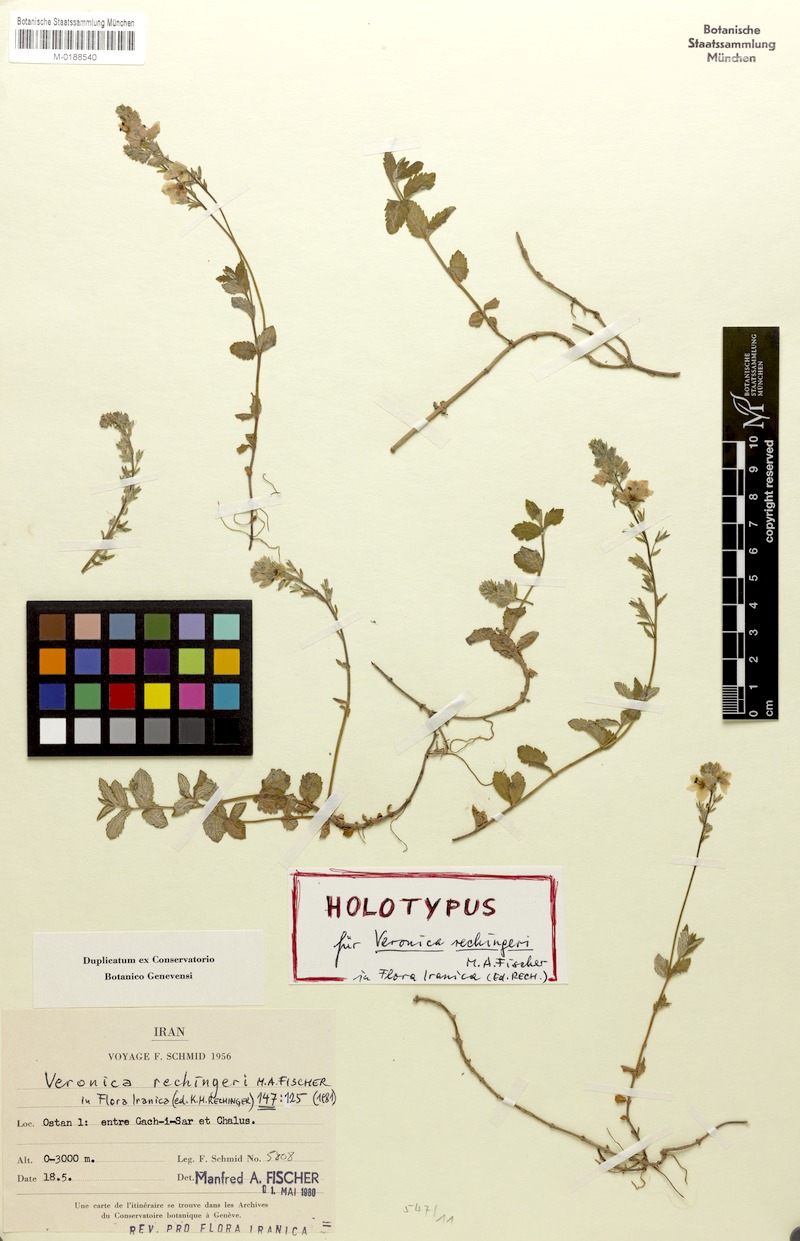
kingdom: Plantae
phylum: Tracheophyta
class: Magnoliopsida
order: Lamiales
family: Plantaginaceae
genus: Veronica
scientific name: Veronica rechingeri
